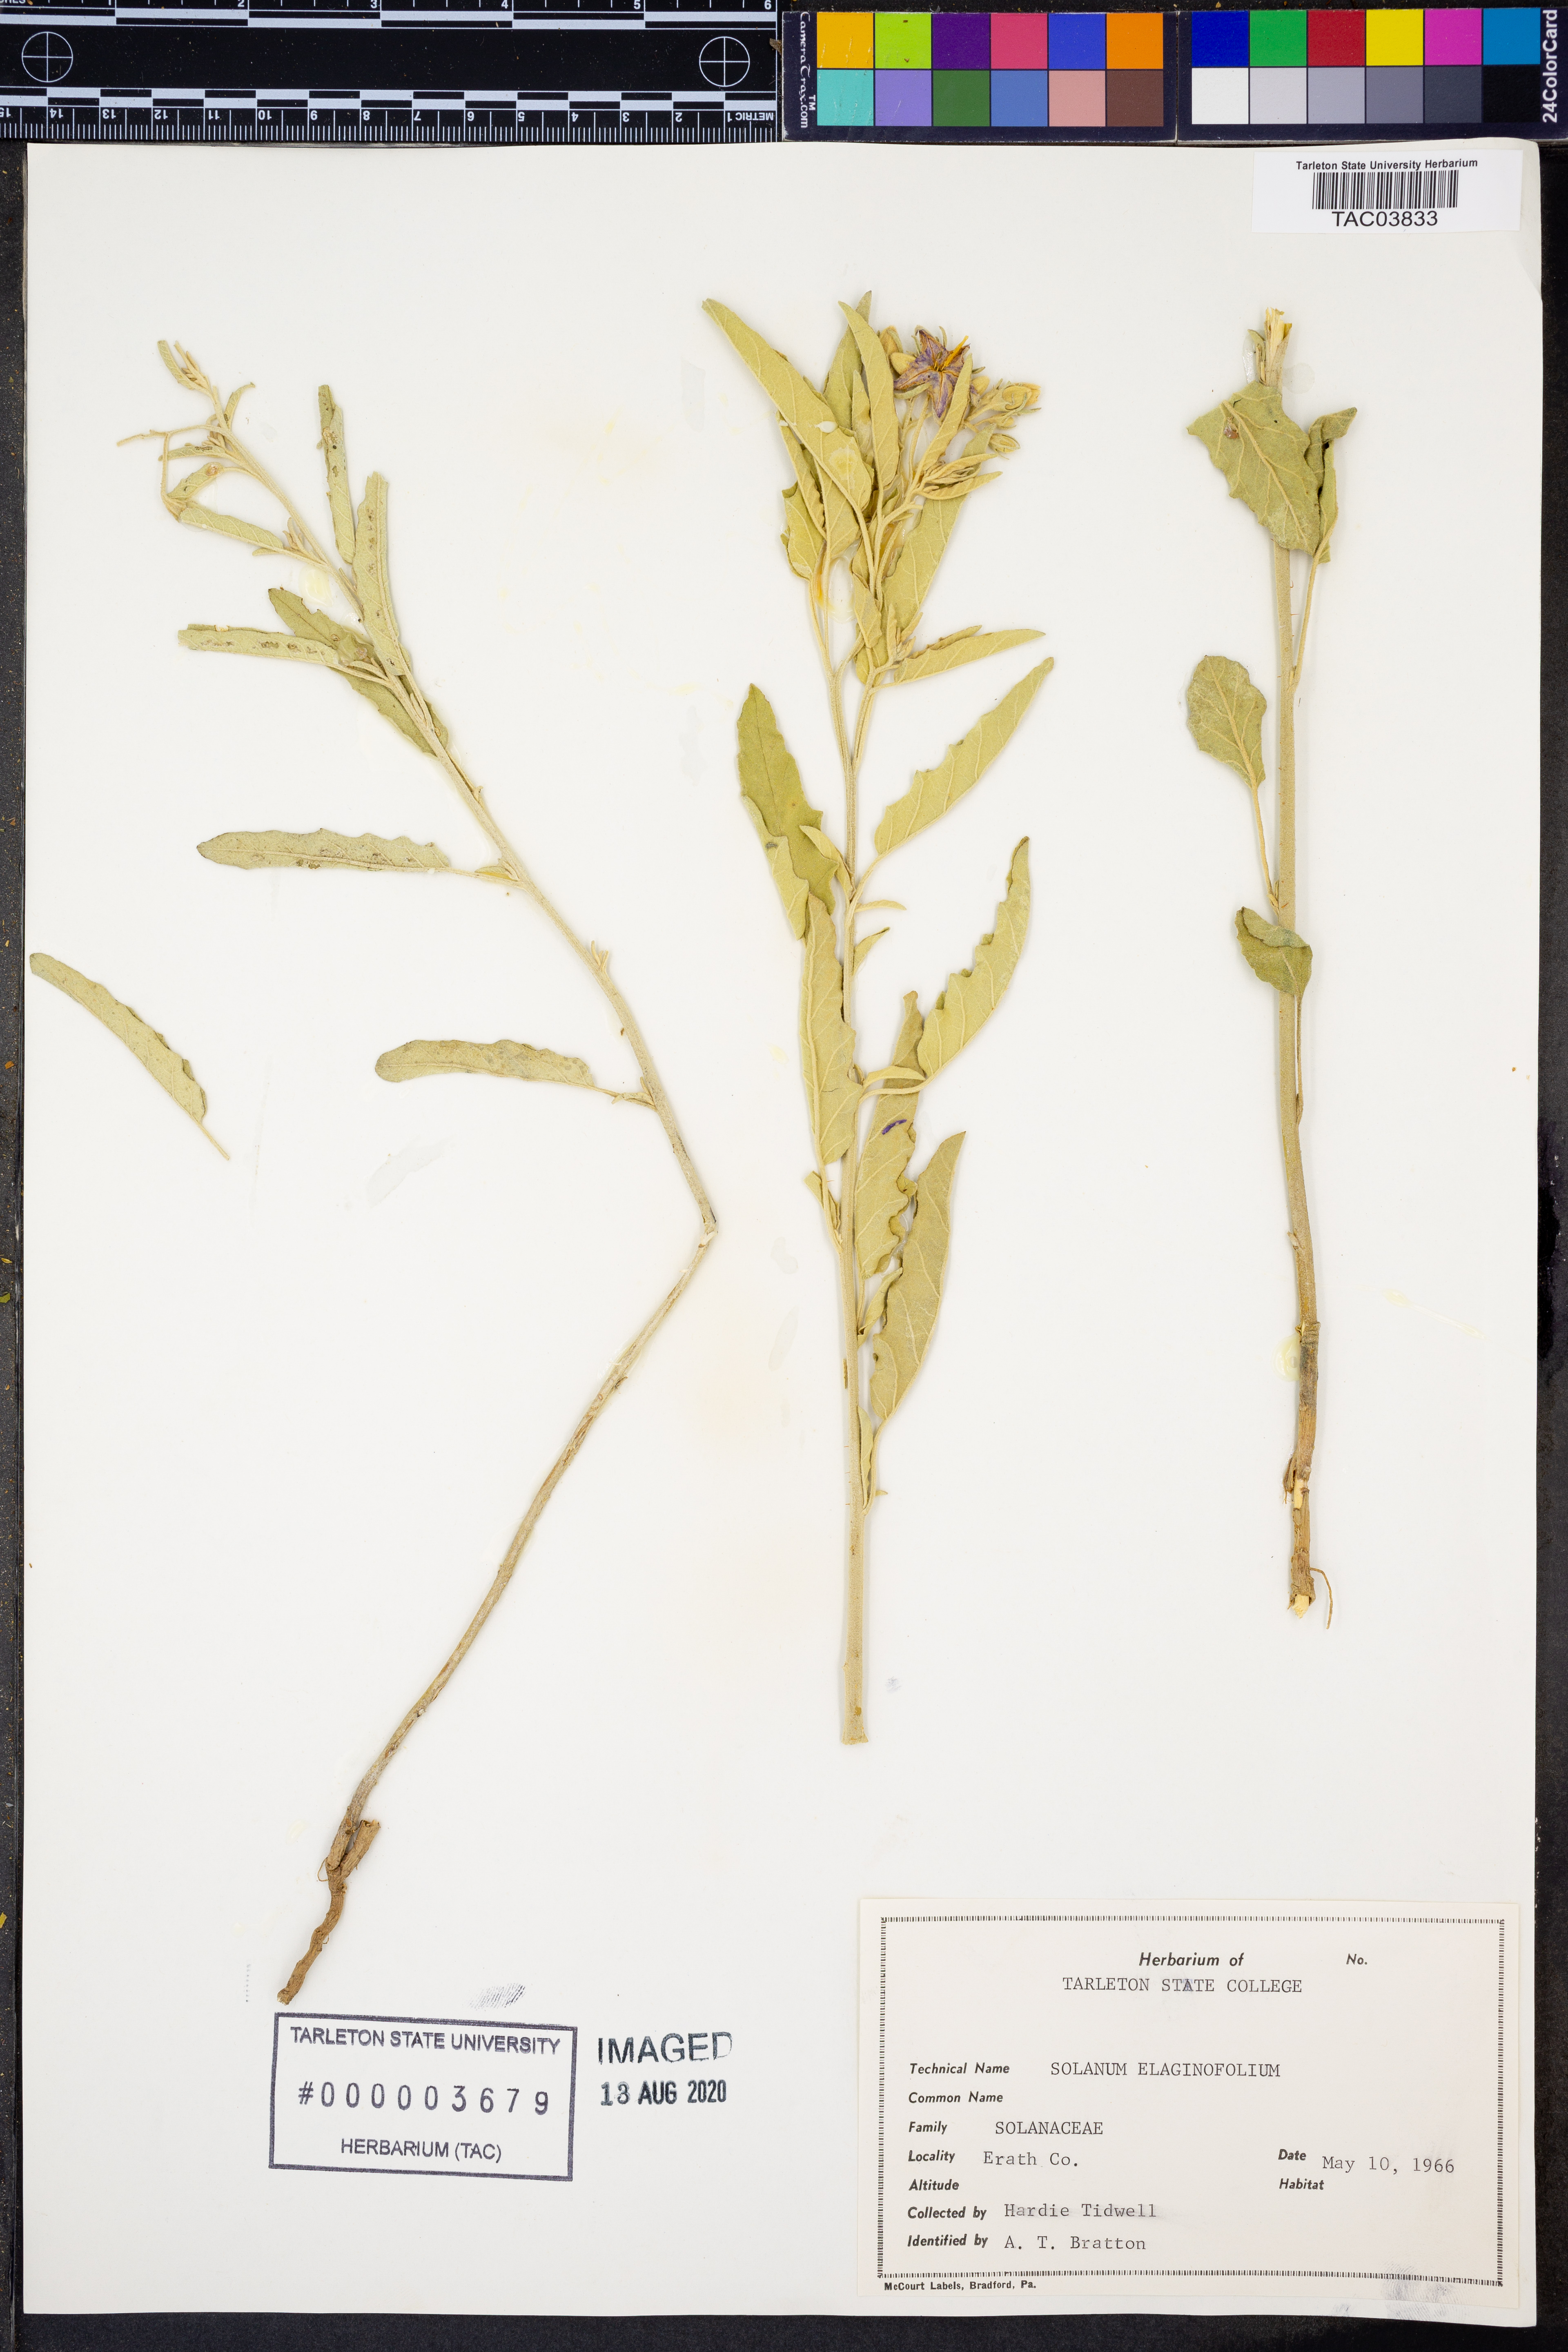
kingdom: Plantae
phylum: Tracheophyta
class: Magnoliopsida
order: Solanales
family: Solanaceae
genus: Solanum
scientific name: Solanum elaeagnifolium
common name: Silverleaf nightshade
